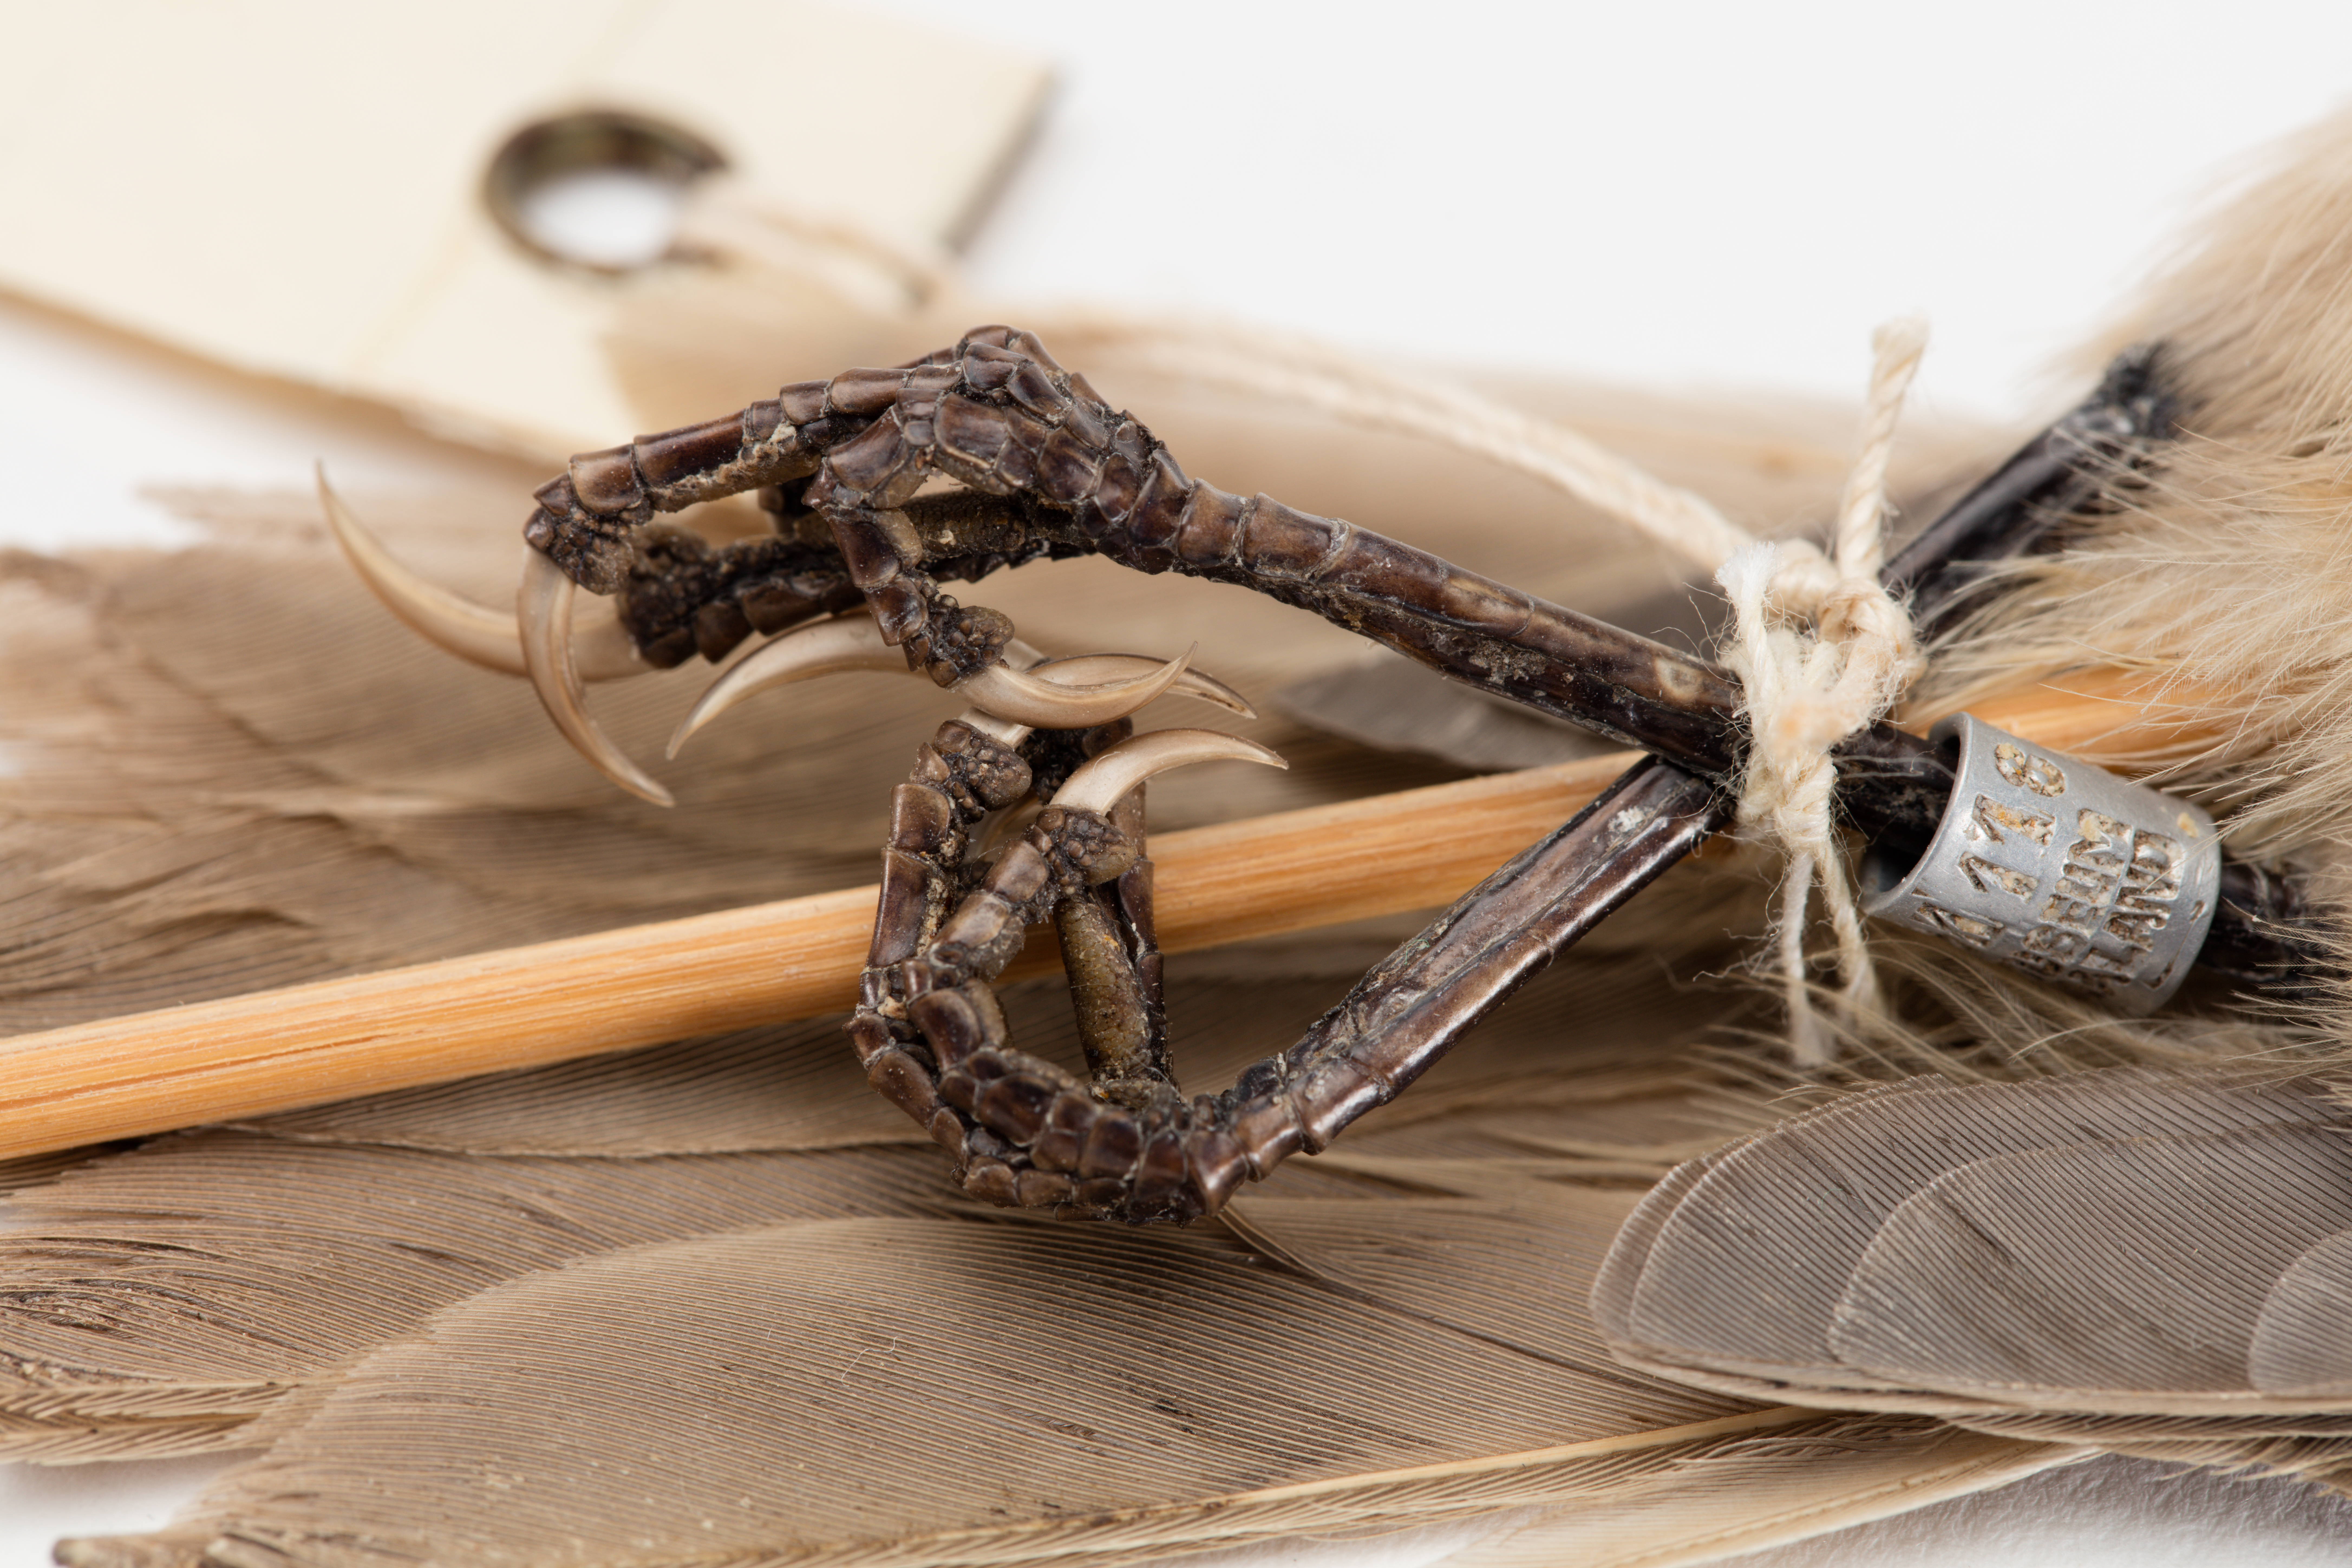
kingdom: Animalia
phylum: Chordata
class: Aves
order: Passeriformes
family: Acanthizidae
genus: Mohoua
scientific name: Mohoua albicilla
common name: Whitehead
